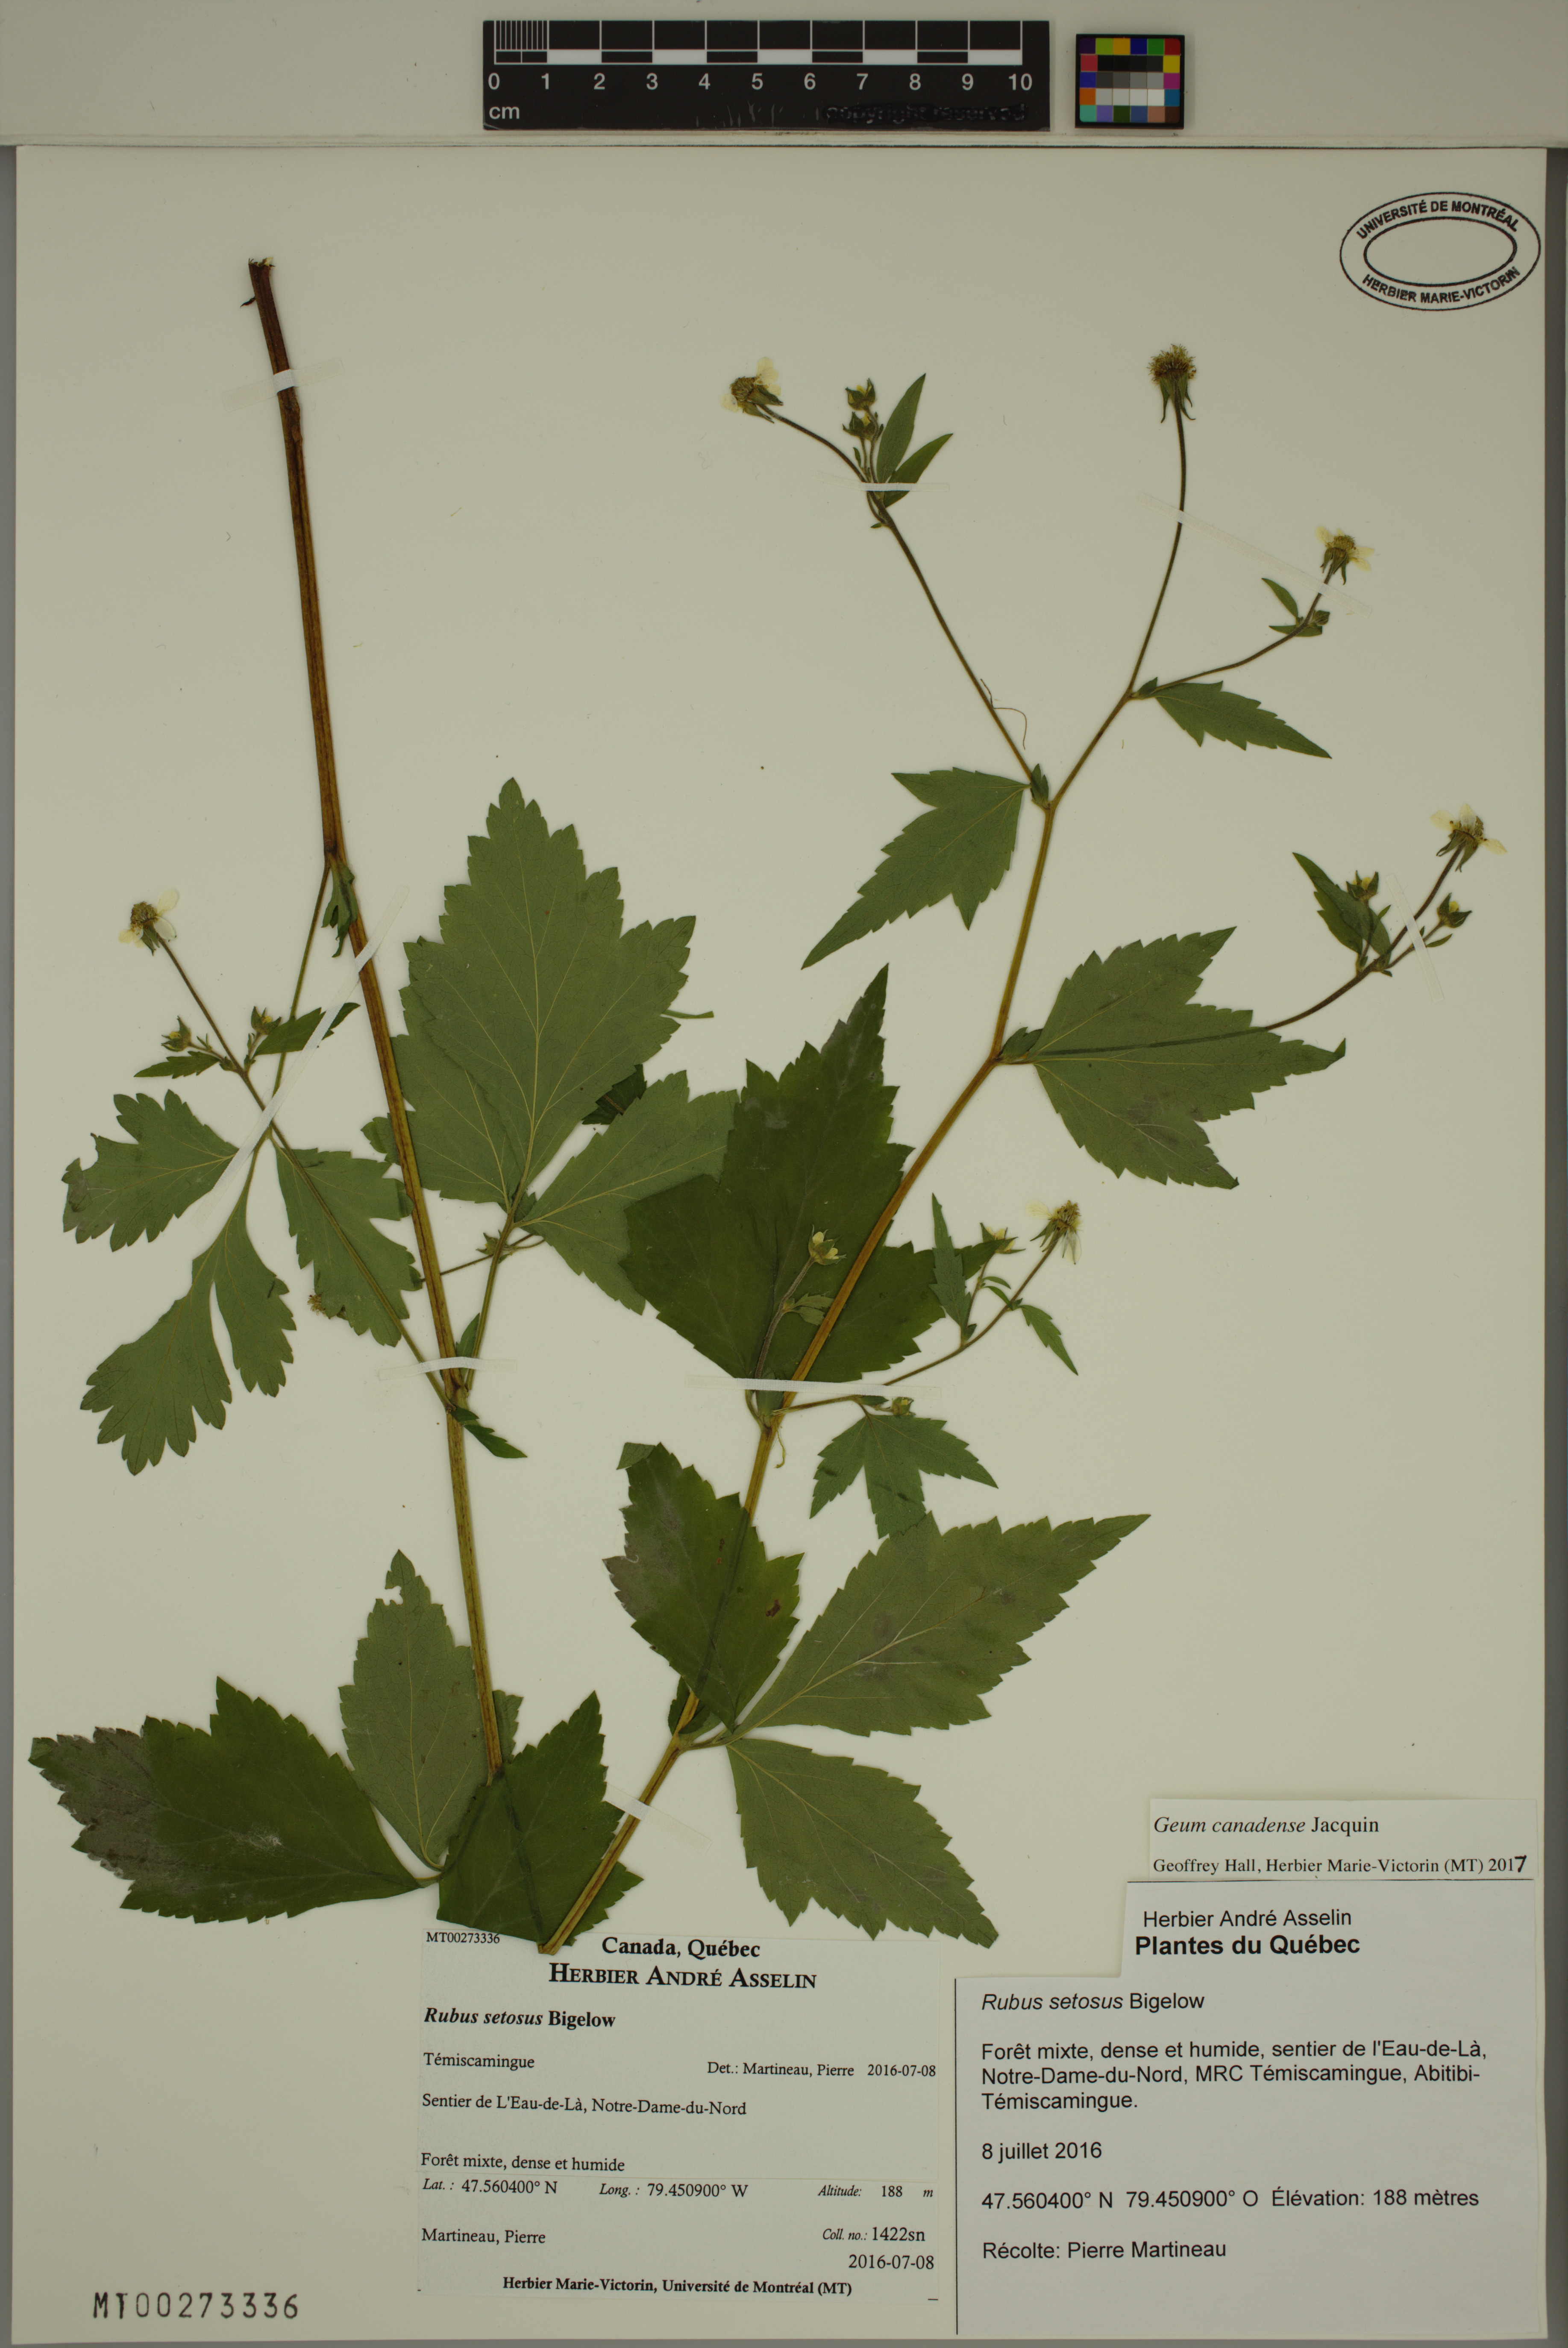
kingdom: Plantae
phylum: Tracheophyta
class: Magnoliopsida
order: Rosales
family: Rosaceae
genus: Geum
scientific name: Geum canadense
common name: White avens
